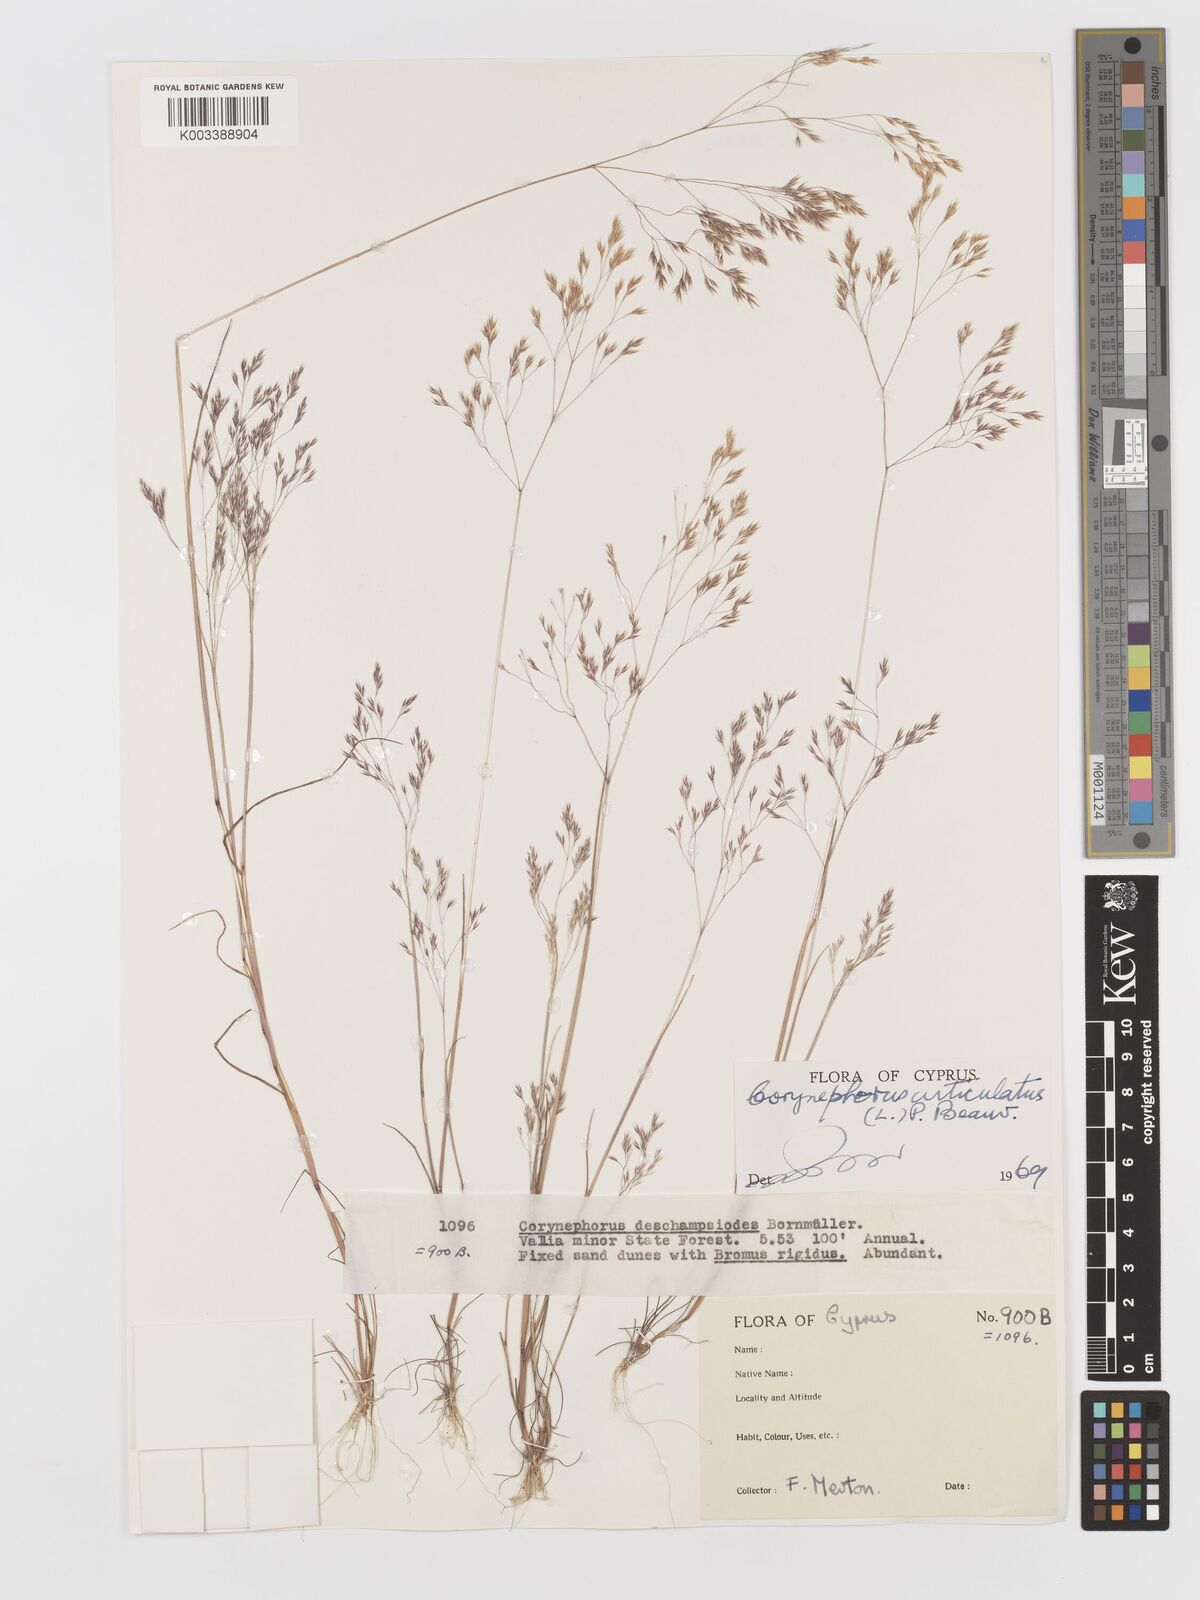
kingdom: Plantae
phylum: Tracheophyta
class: Liliopsida
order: Poales
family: Poaceae
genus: Corynephorus
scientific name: Corynephorus divaricatus
